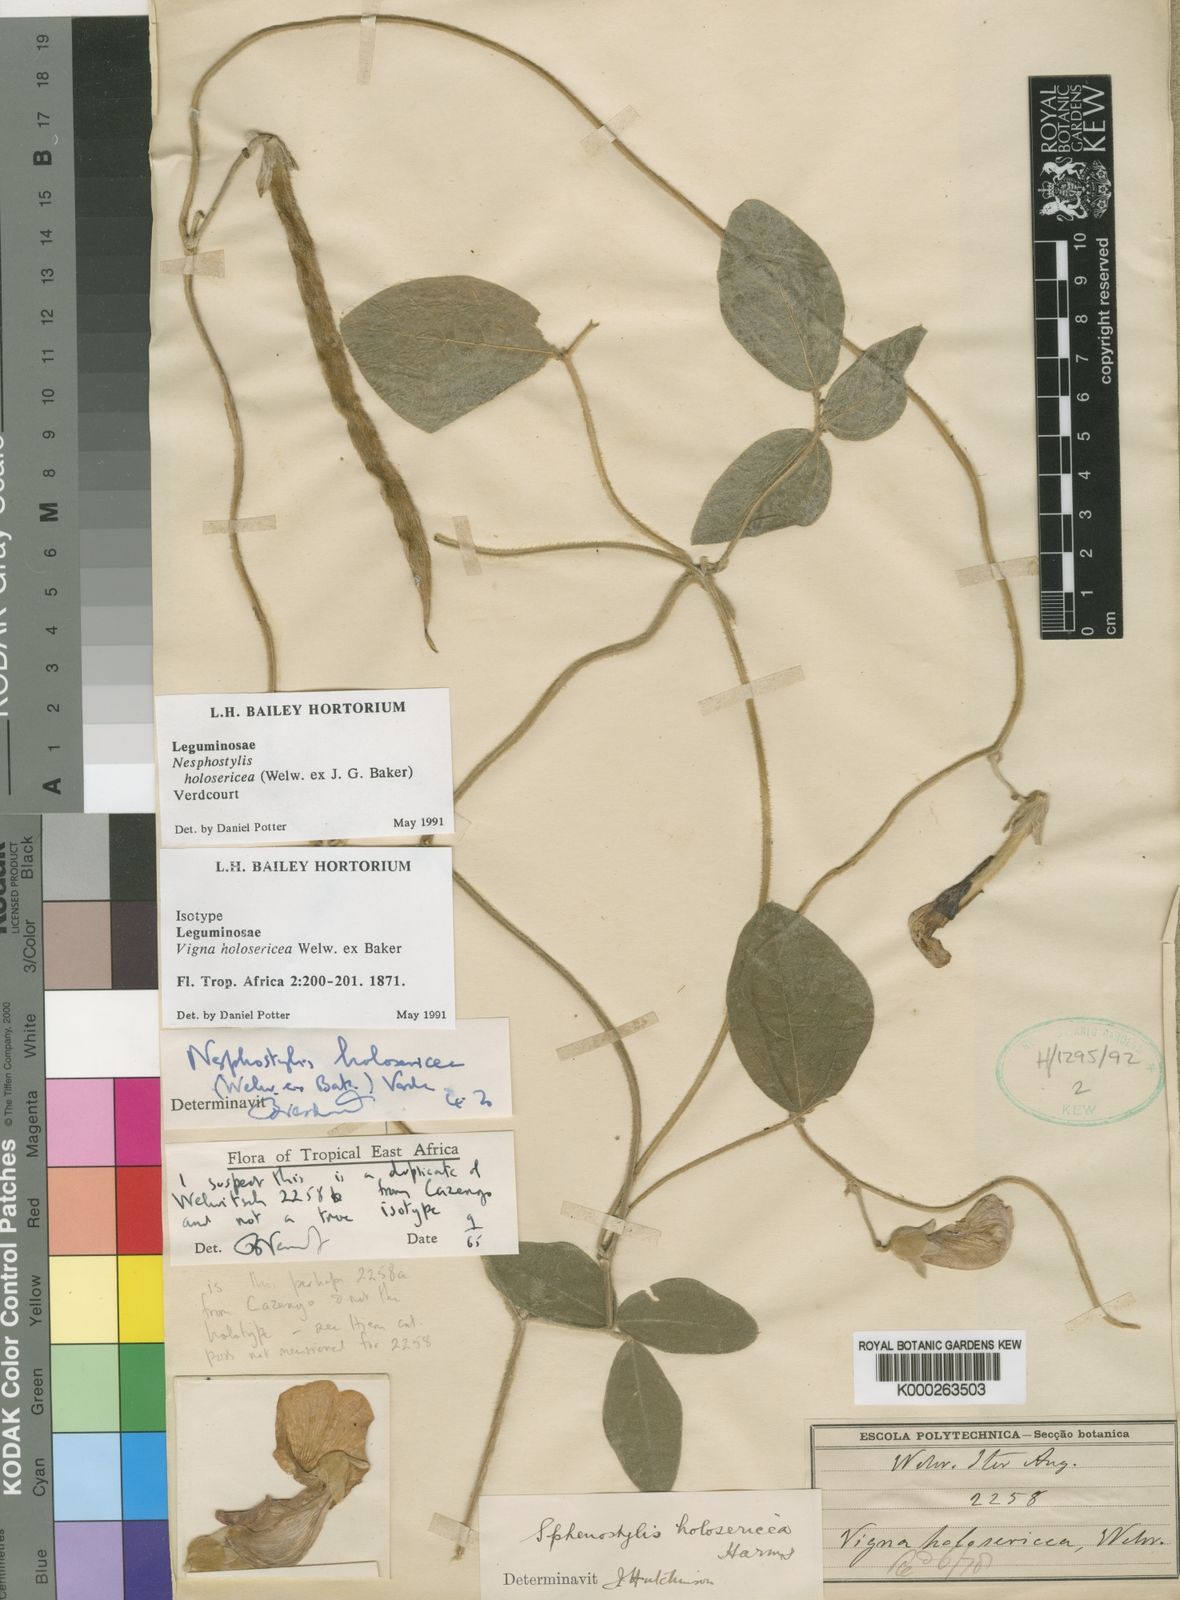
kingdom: Plantae
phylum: Tracheophyta
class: Magnoliopsida
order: Fabales
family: Fabaceae
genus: Nesphostylis
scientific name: Nesphostylis holosericea
